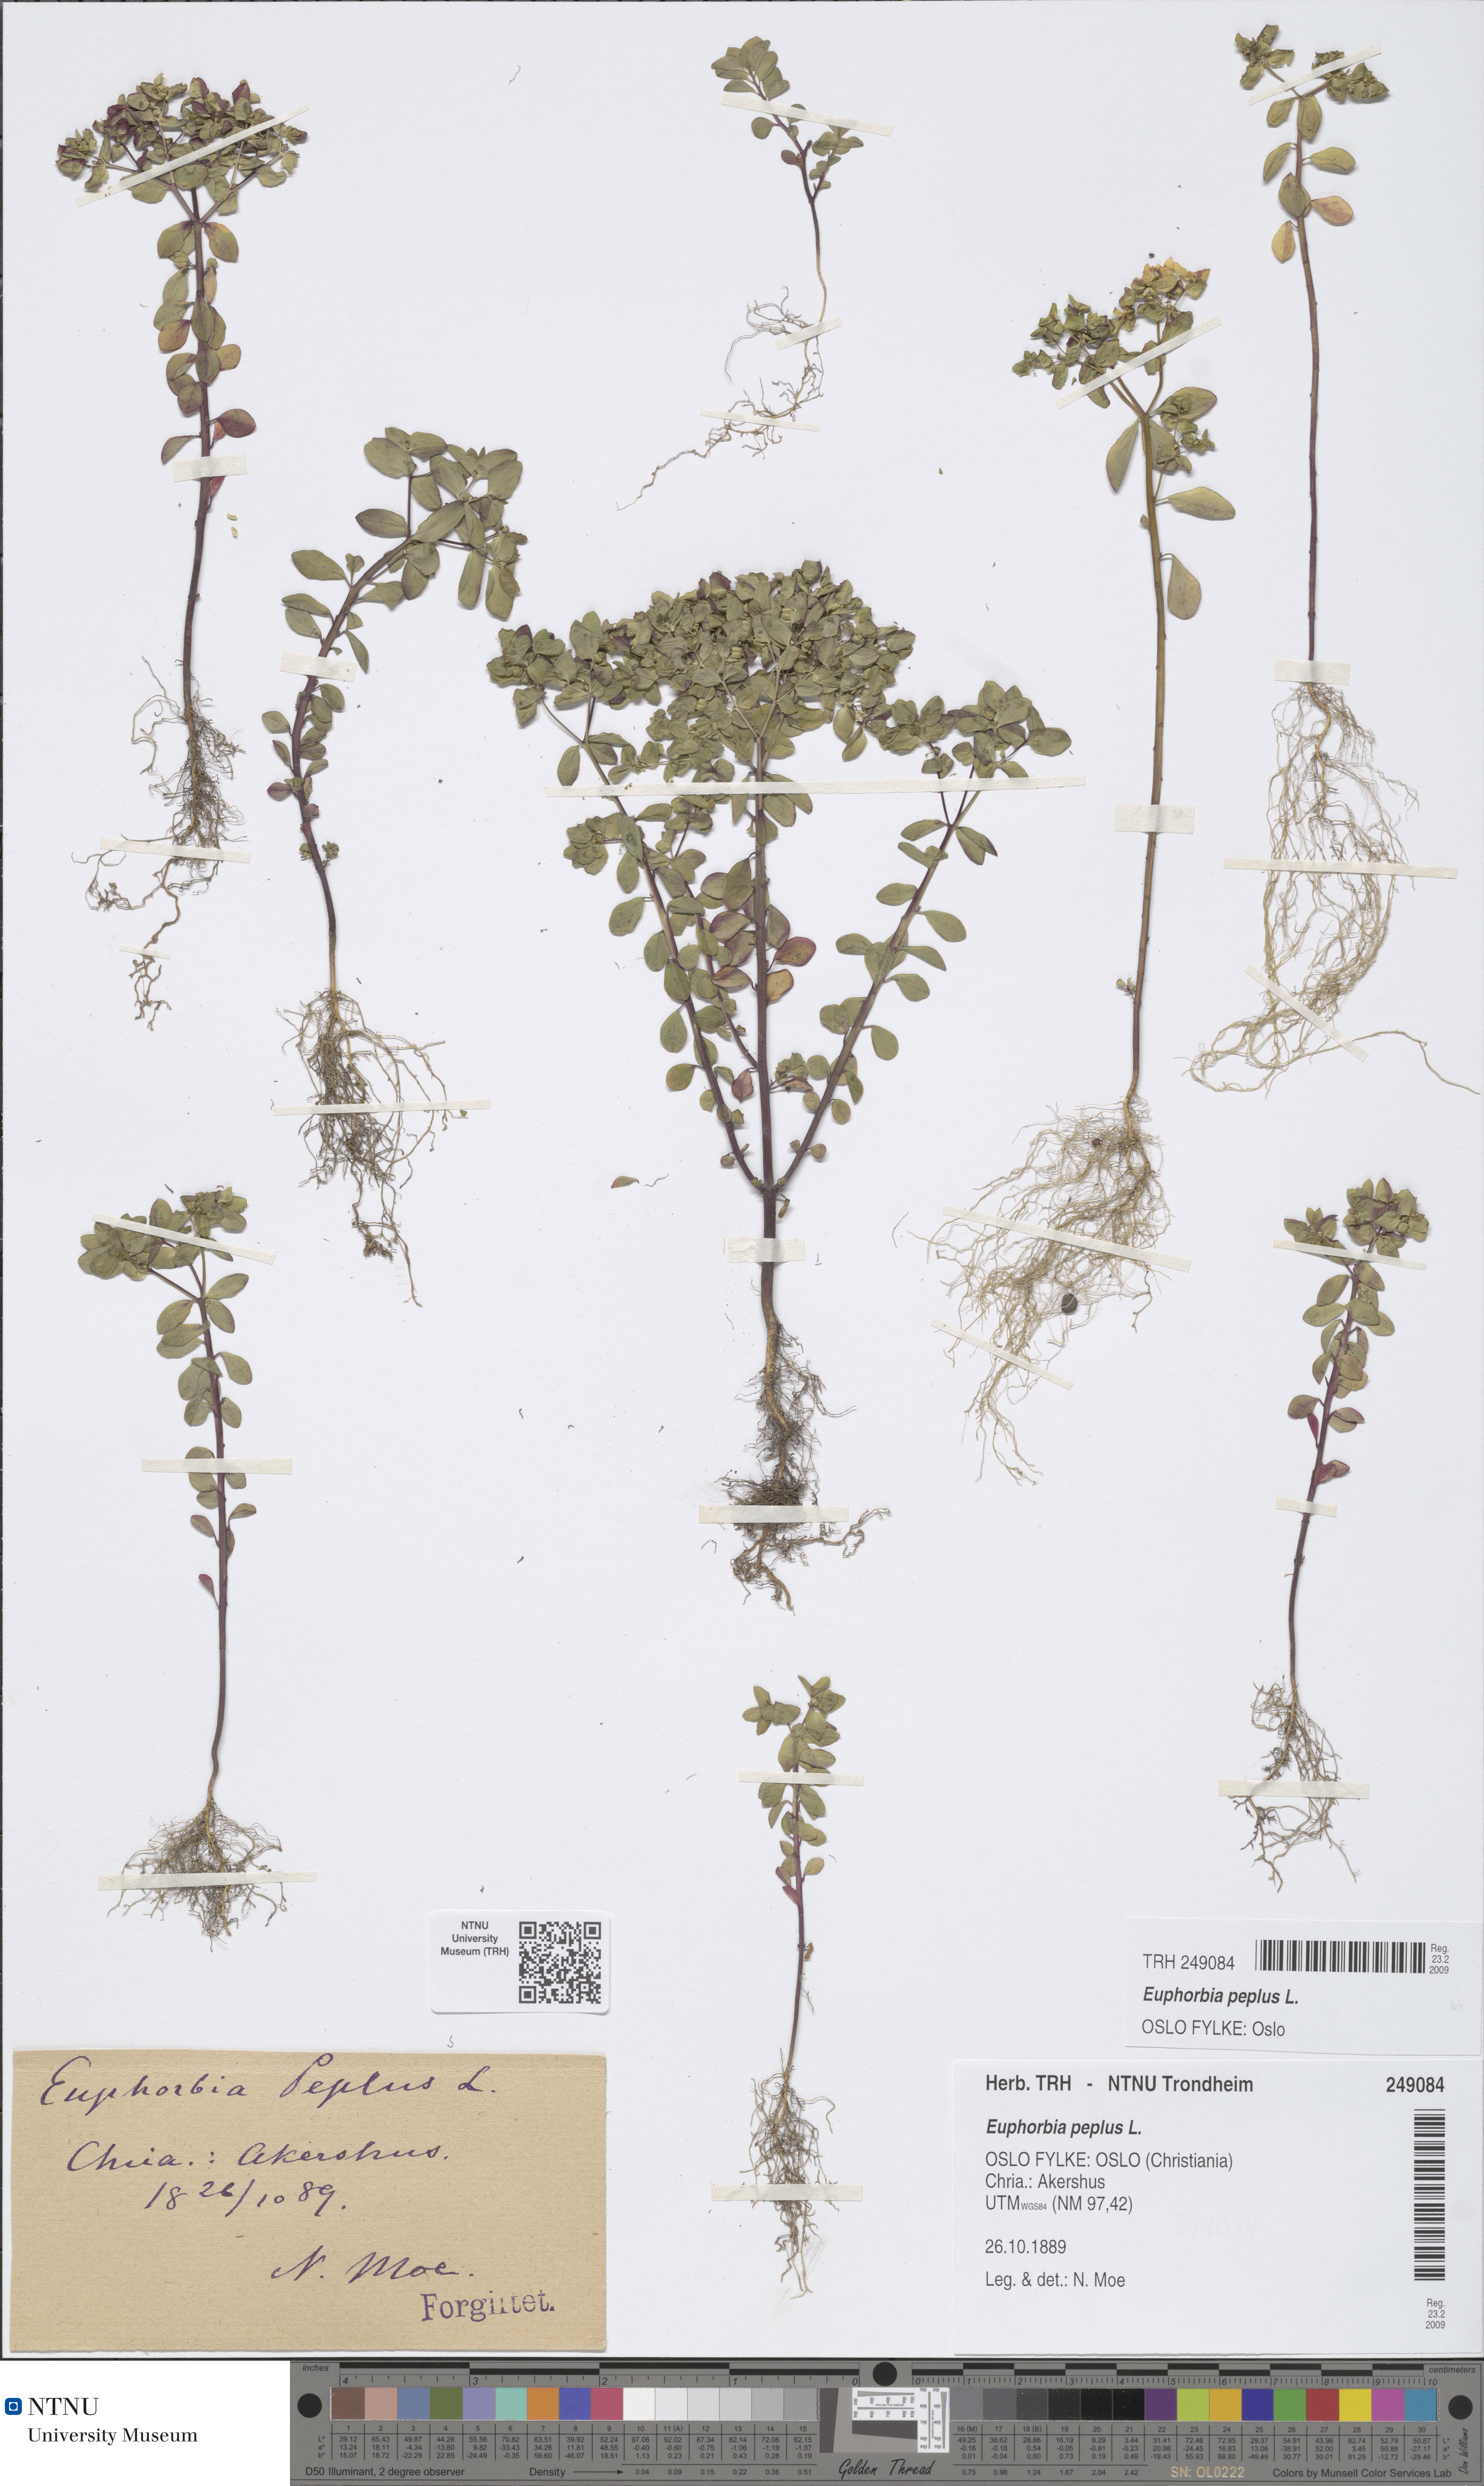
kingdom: Plantae
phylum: Tracheophyta
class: Magnoliopsida
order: Malpighiales
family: Euphorbiaceae
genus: Euphorbia
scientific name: Euphorbia peplus
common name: Petty spurge
